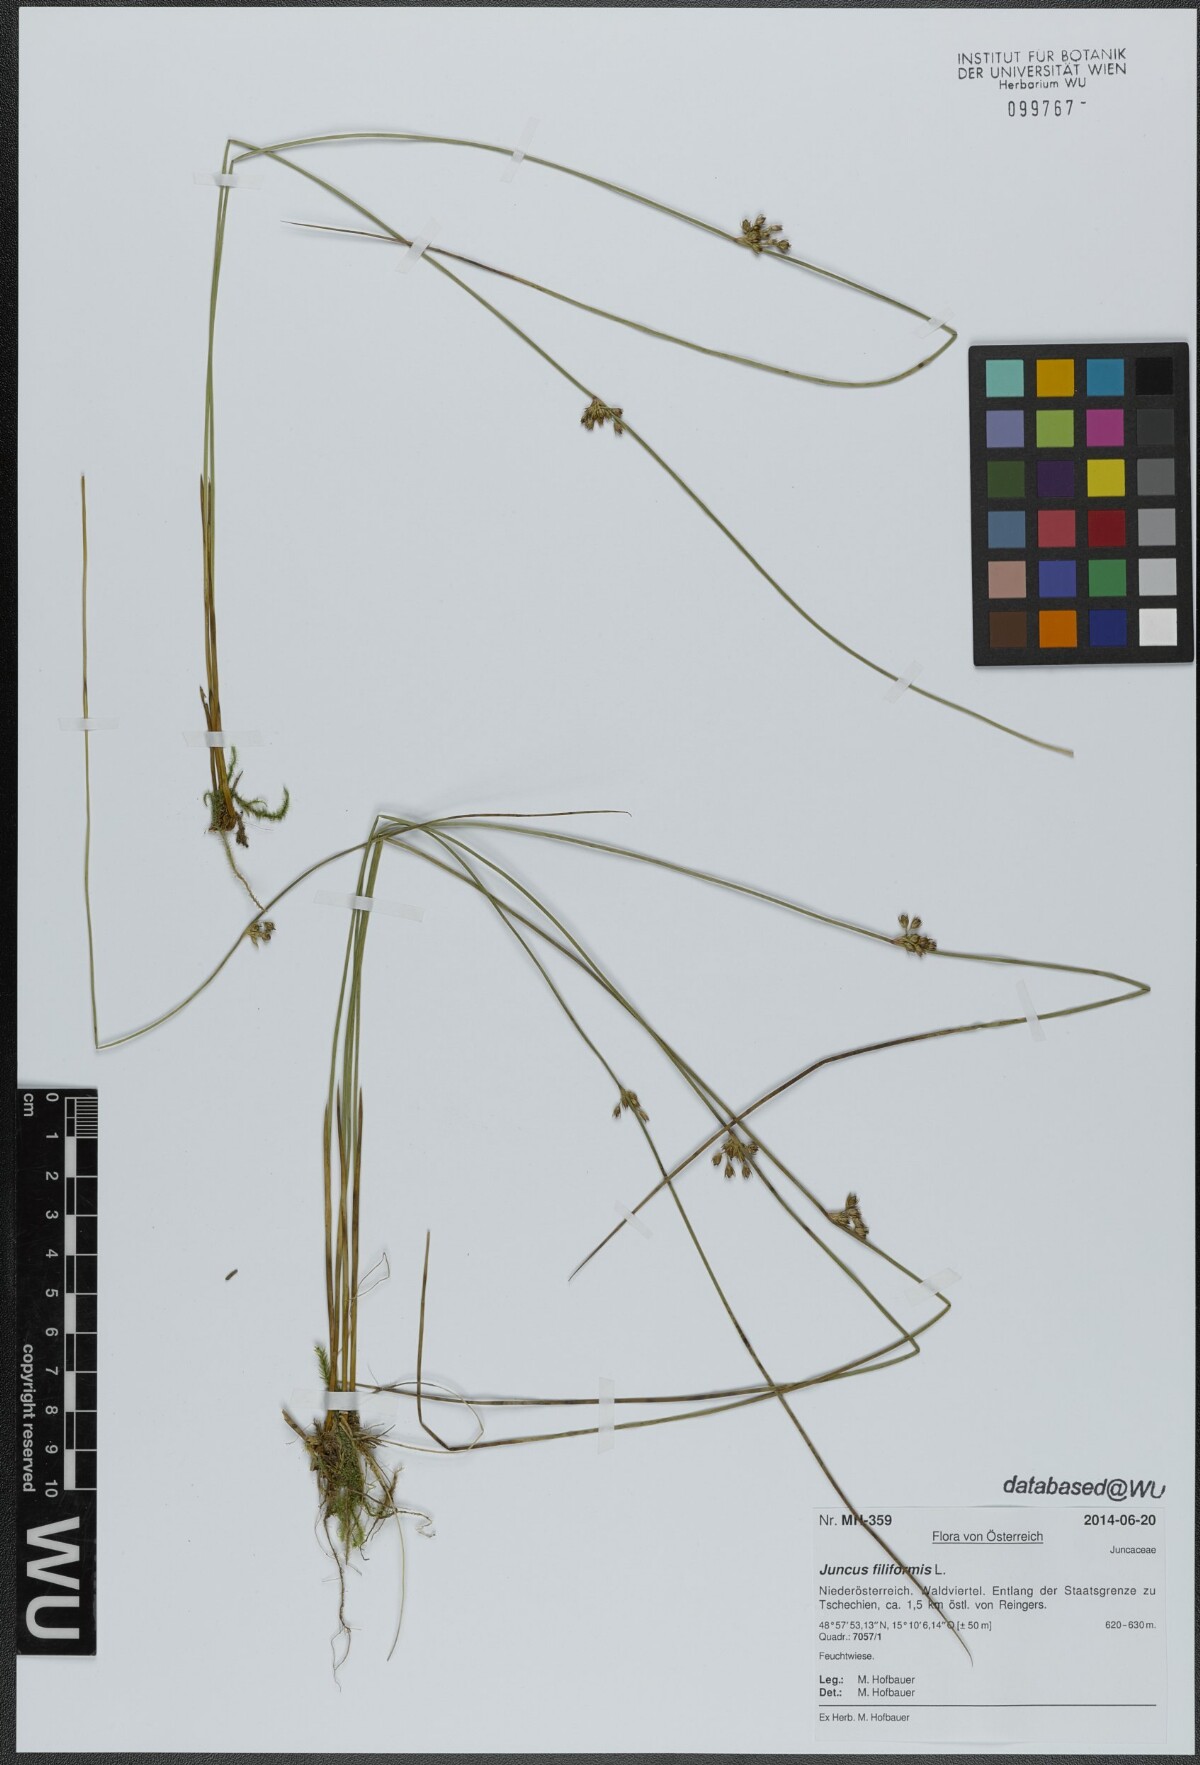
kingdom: Plantae
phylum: Tracheophyta
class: Liliopsida
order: Poales
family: Juncaceae
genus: Juncus
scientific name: Juncus filiformis
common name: Thread rush
